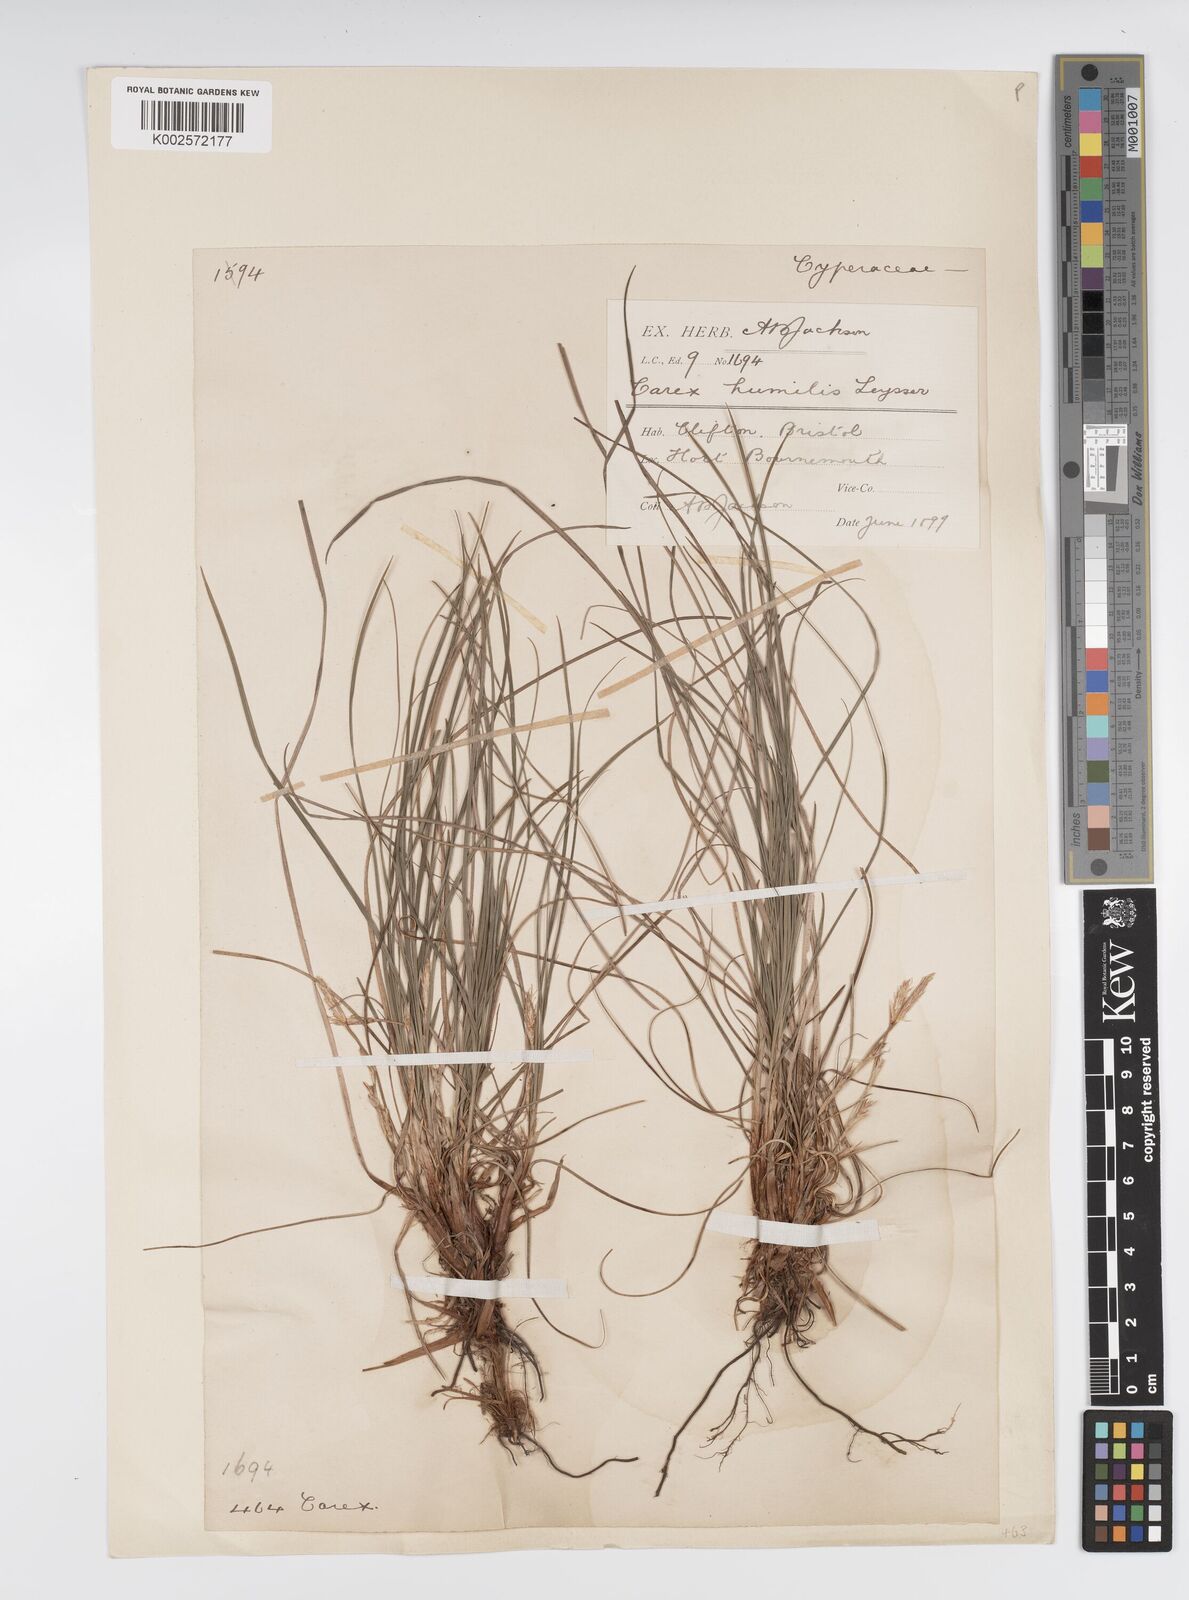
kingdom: Plantae
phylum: Tracheophyta
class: Liliopsida
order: Poales
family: Cyperaceae
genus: Carex
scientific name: Carex humilis
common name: Dwarf sedge
